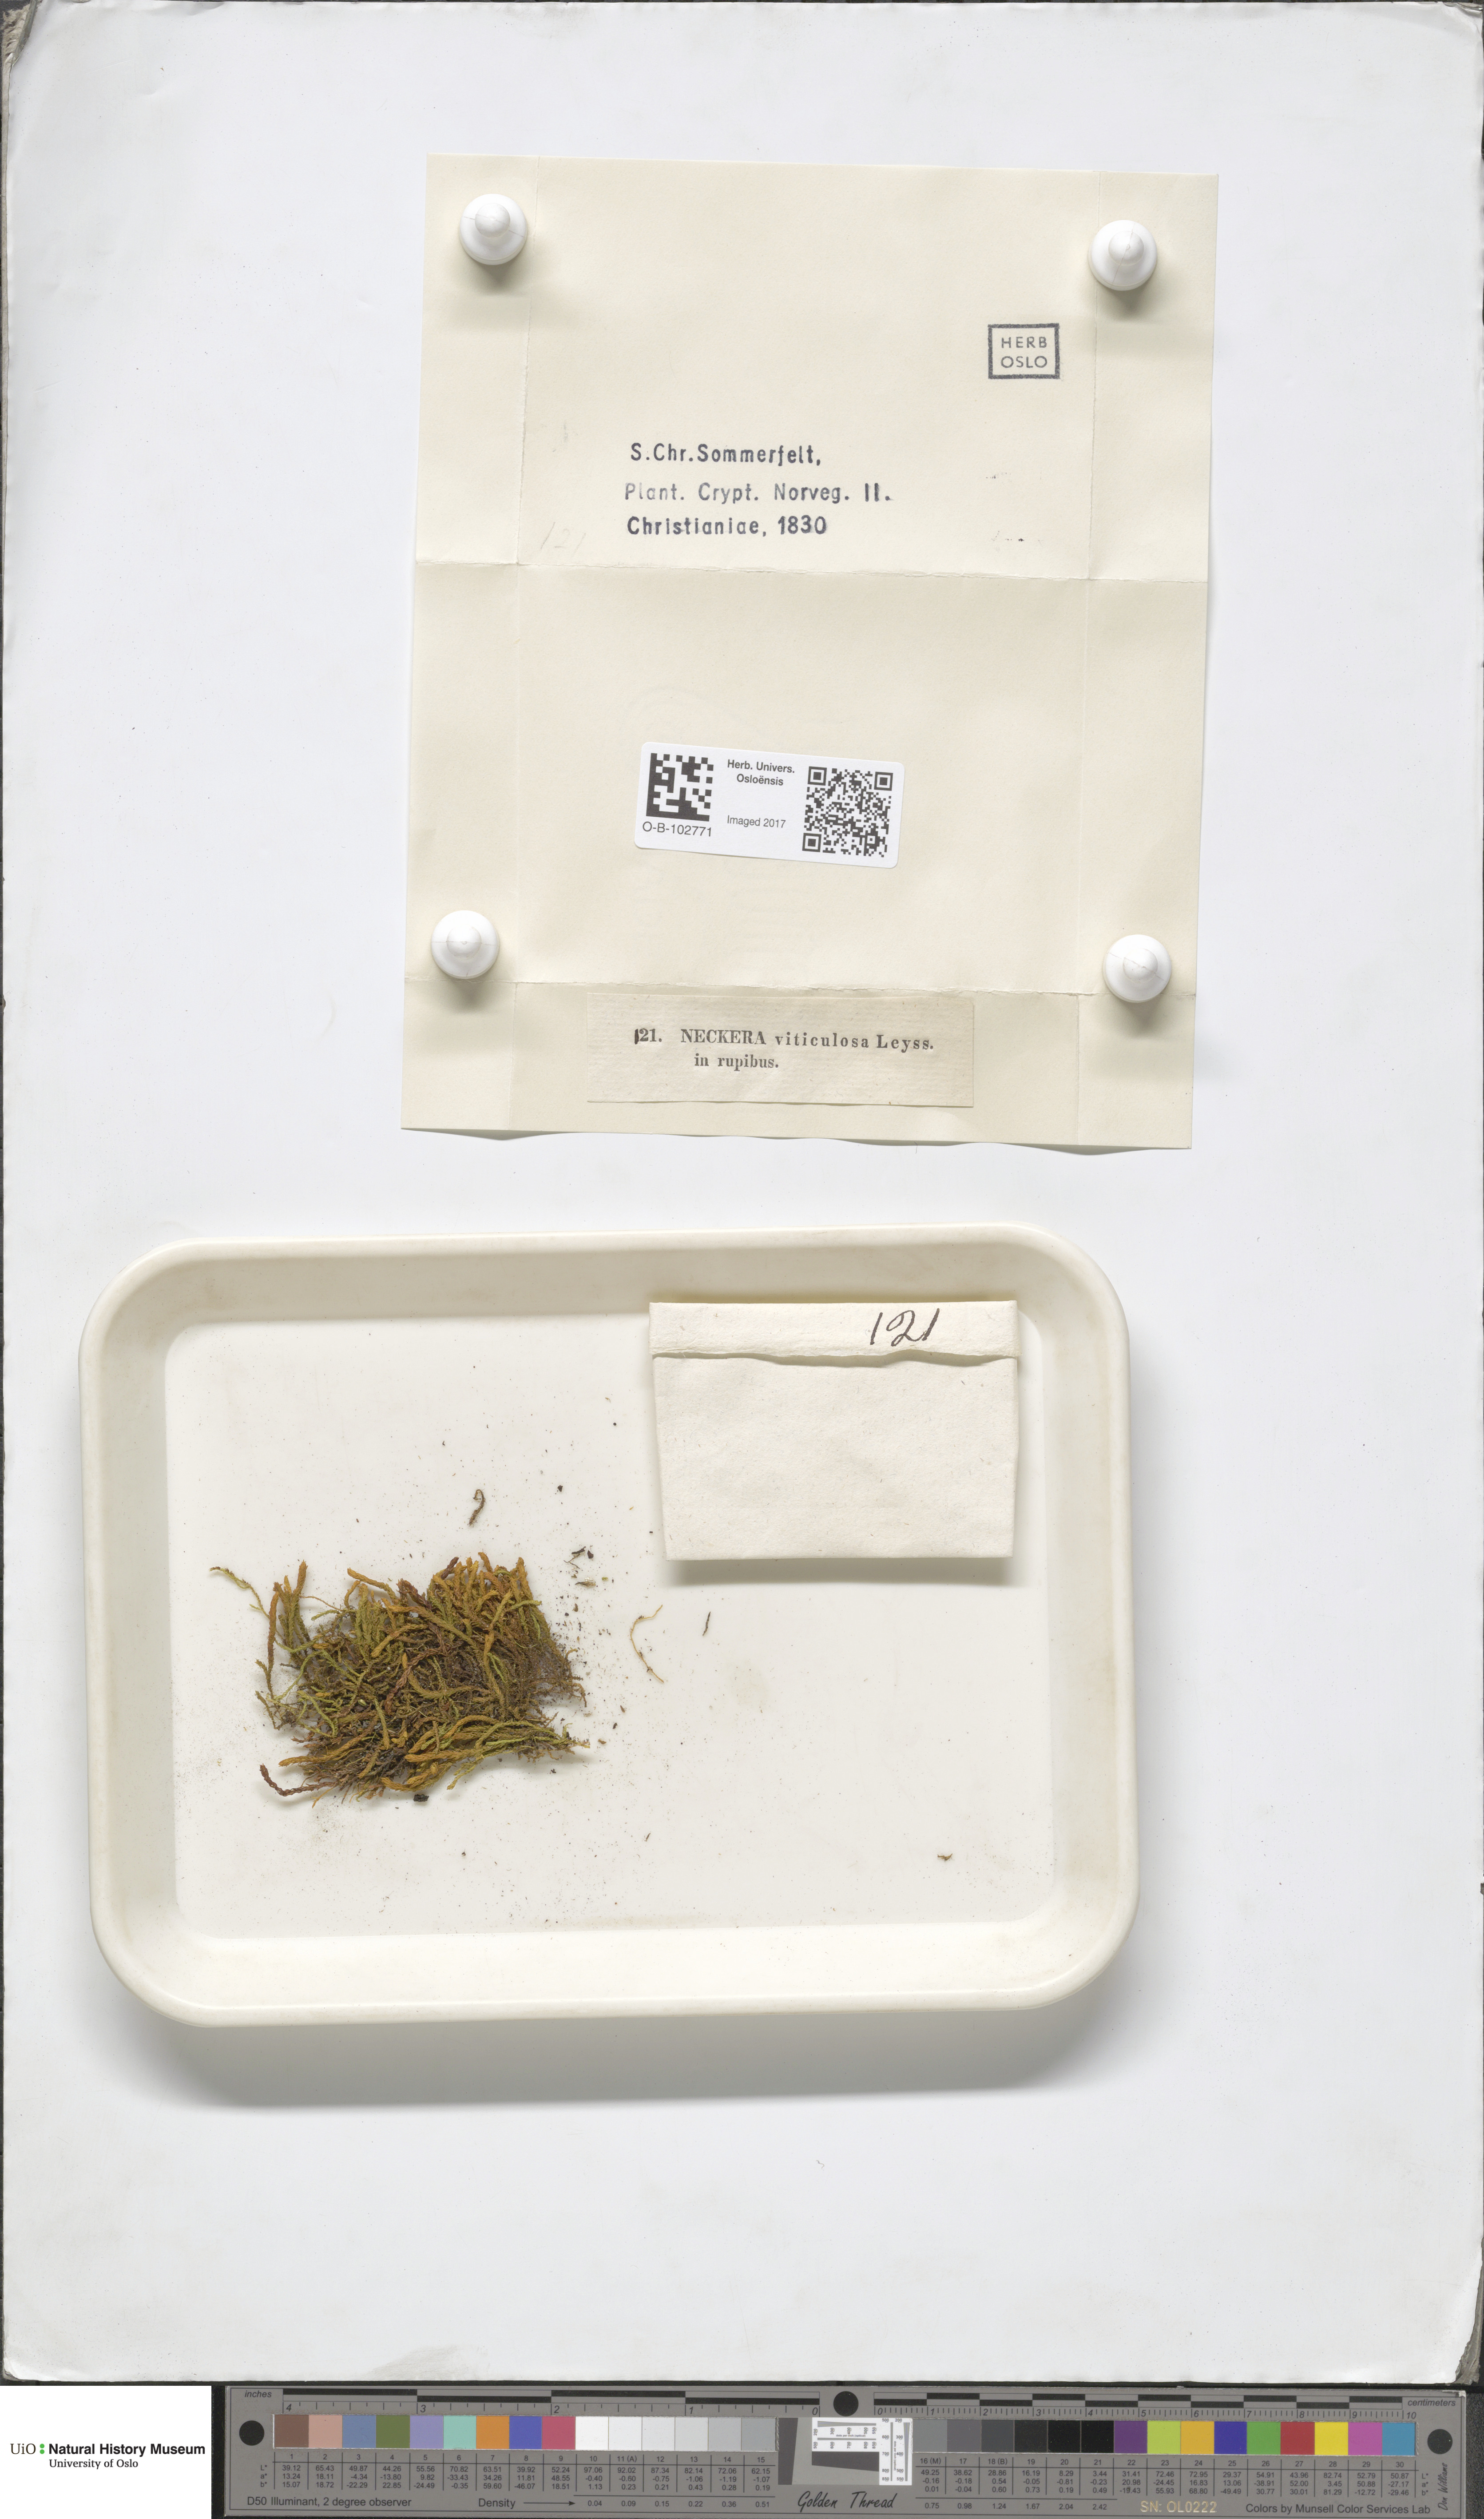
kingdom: Plantae
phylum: Bryophyta
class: Bryopsida
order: Hypnales
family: Anomodontaceae
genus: Anomodon
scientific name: Anomodon viticulosus
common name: Tall anomodon
